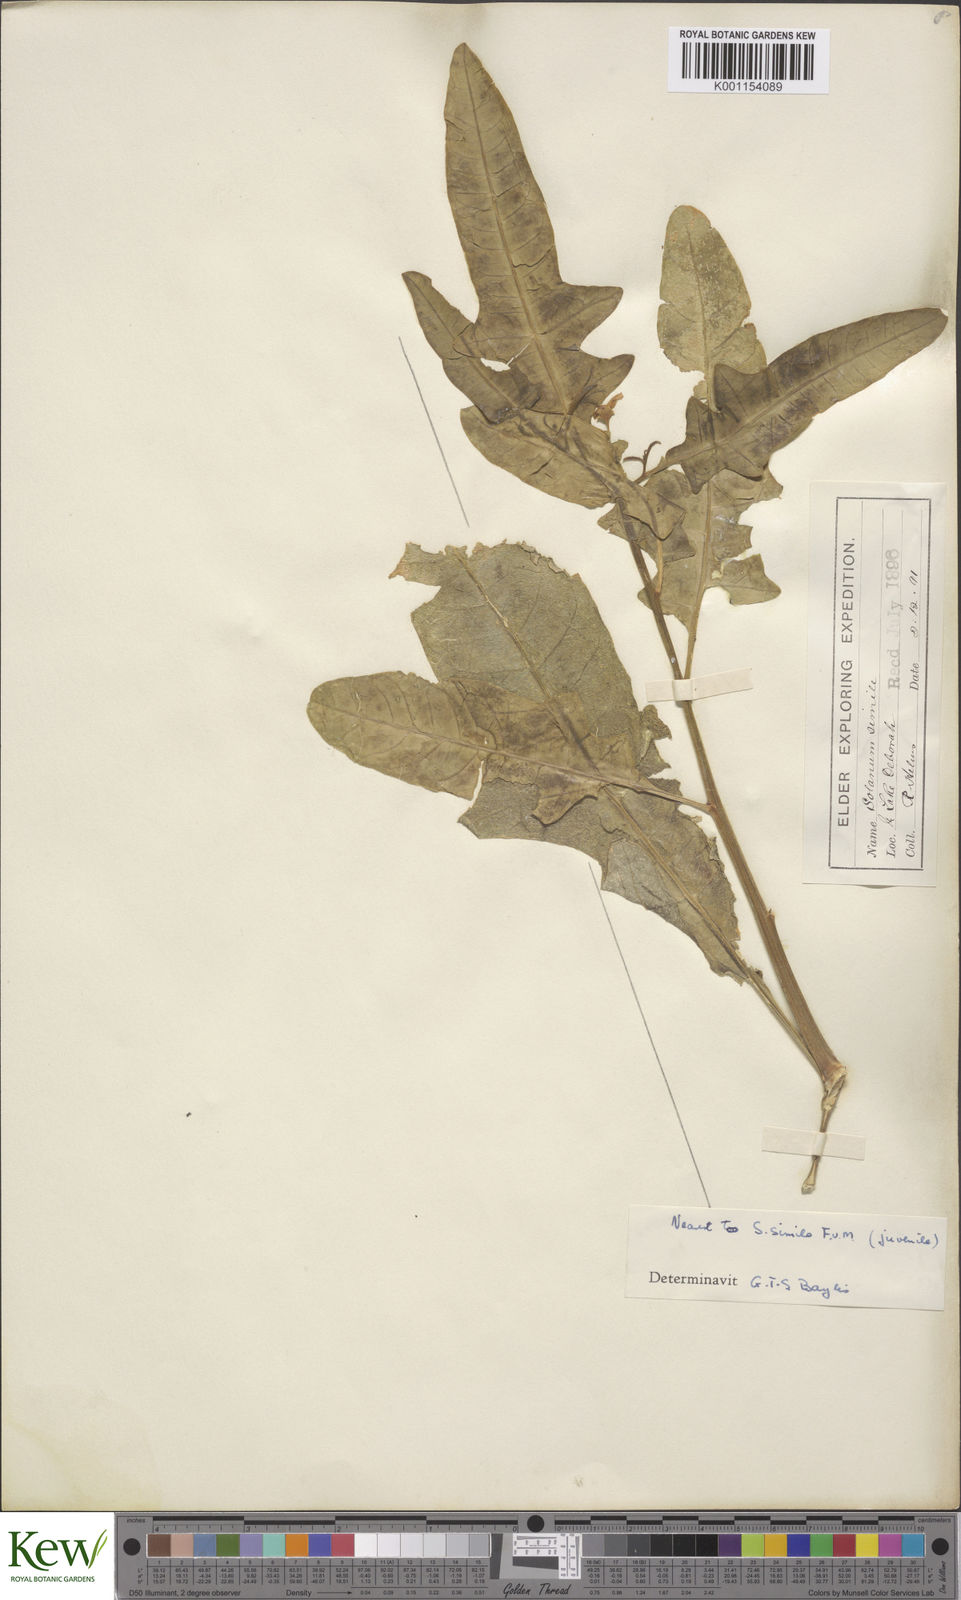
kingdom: Plantae
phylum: Tracheophyta
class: Magnoliopsida
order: Solanales
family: Solanaceae
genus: Solanum
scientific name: Solanum simile
